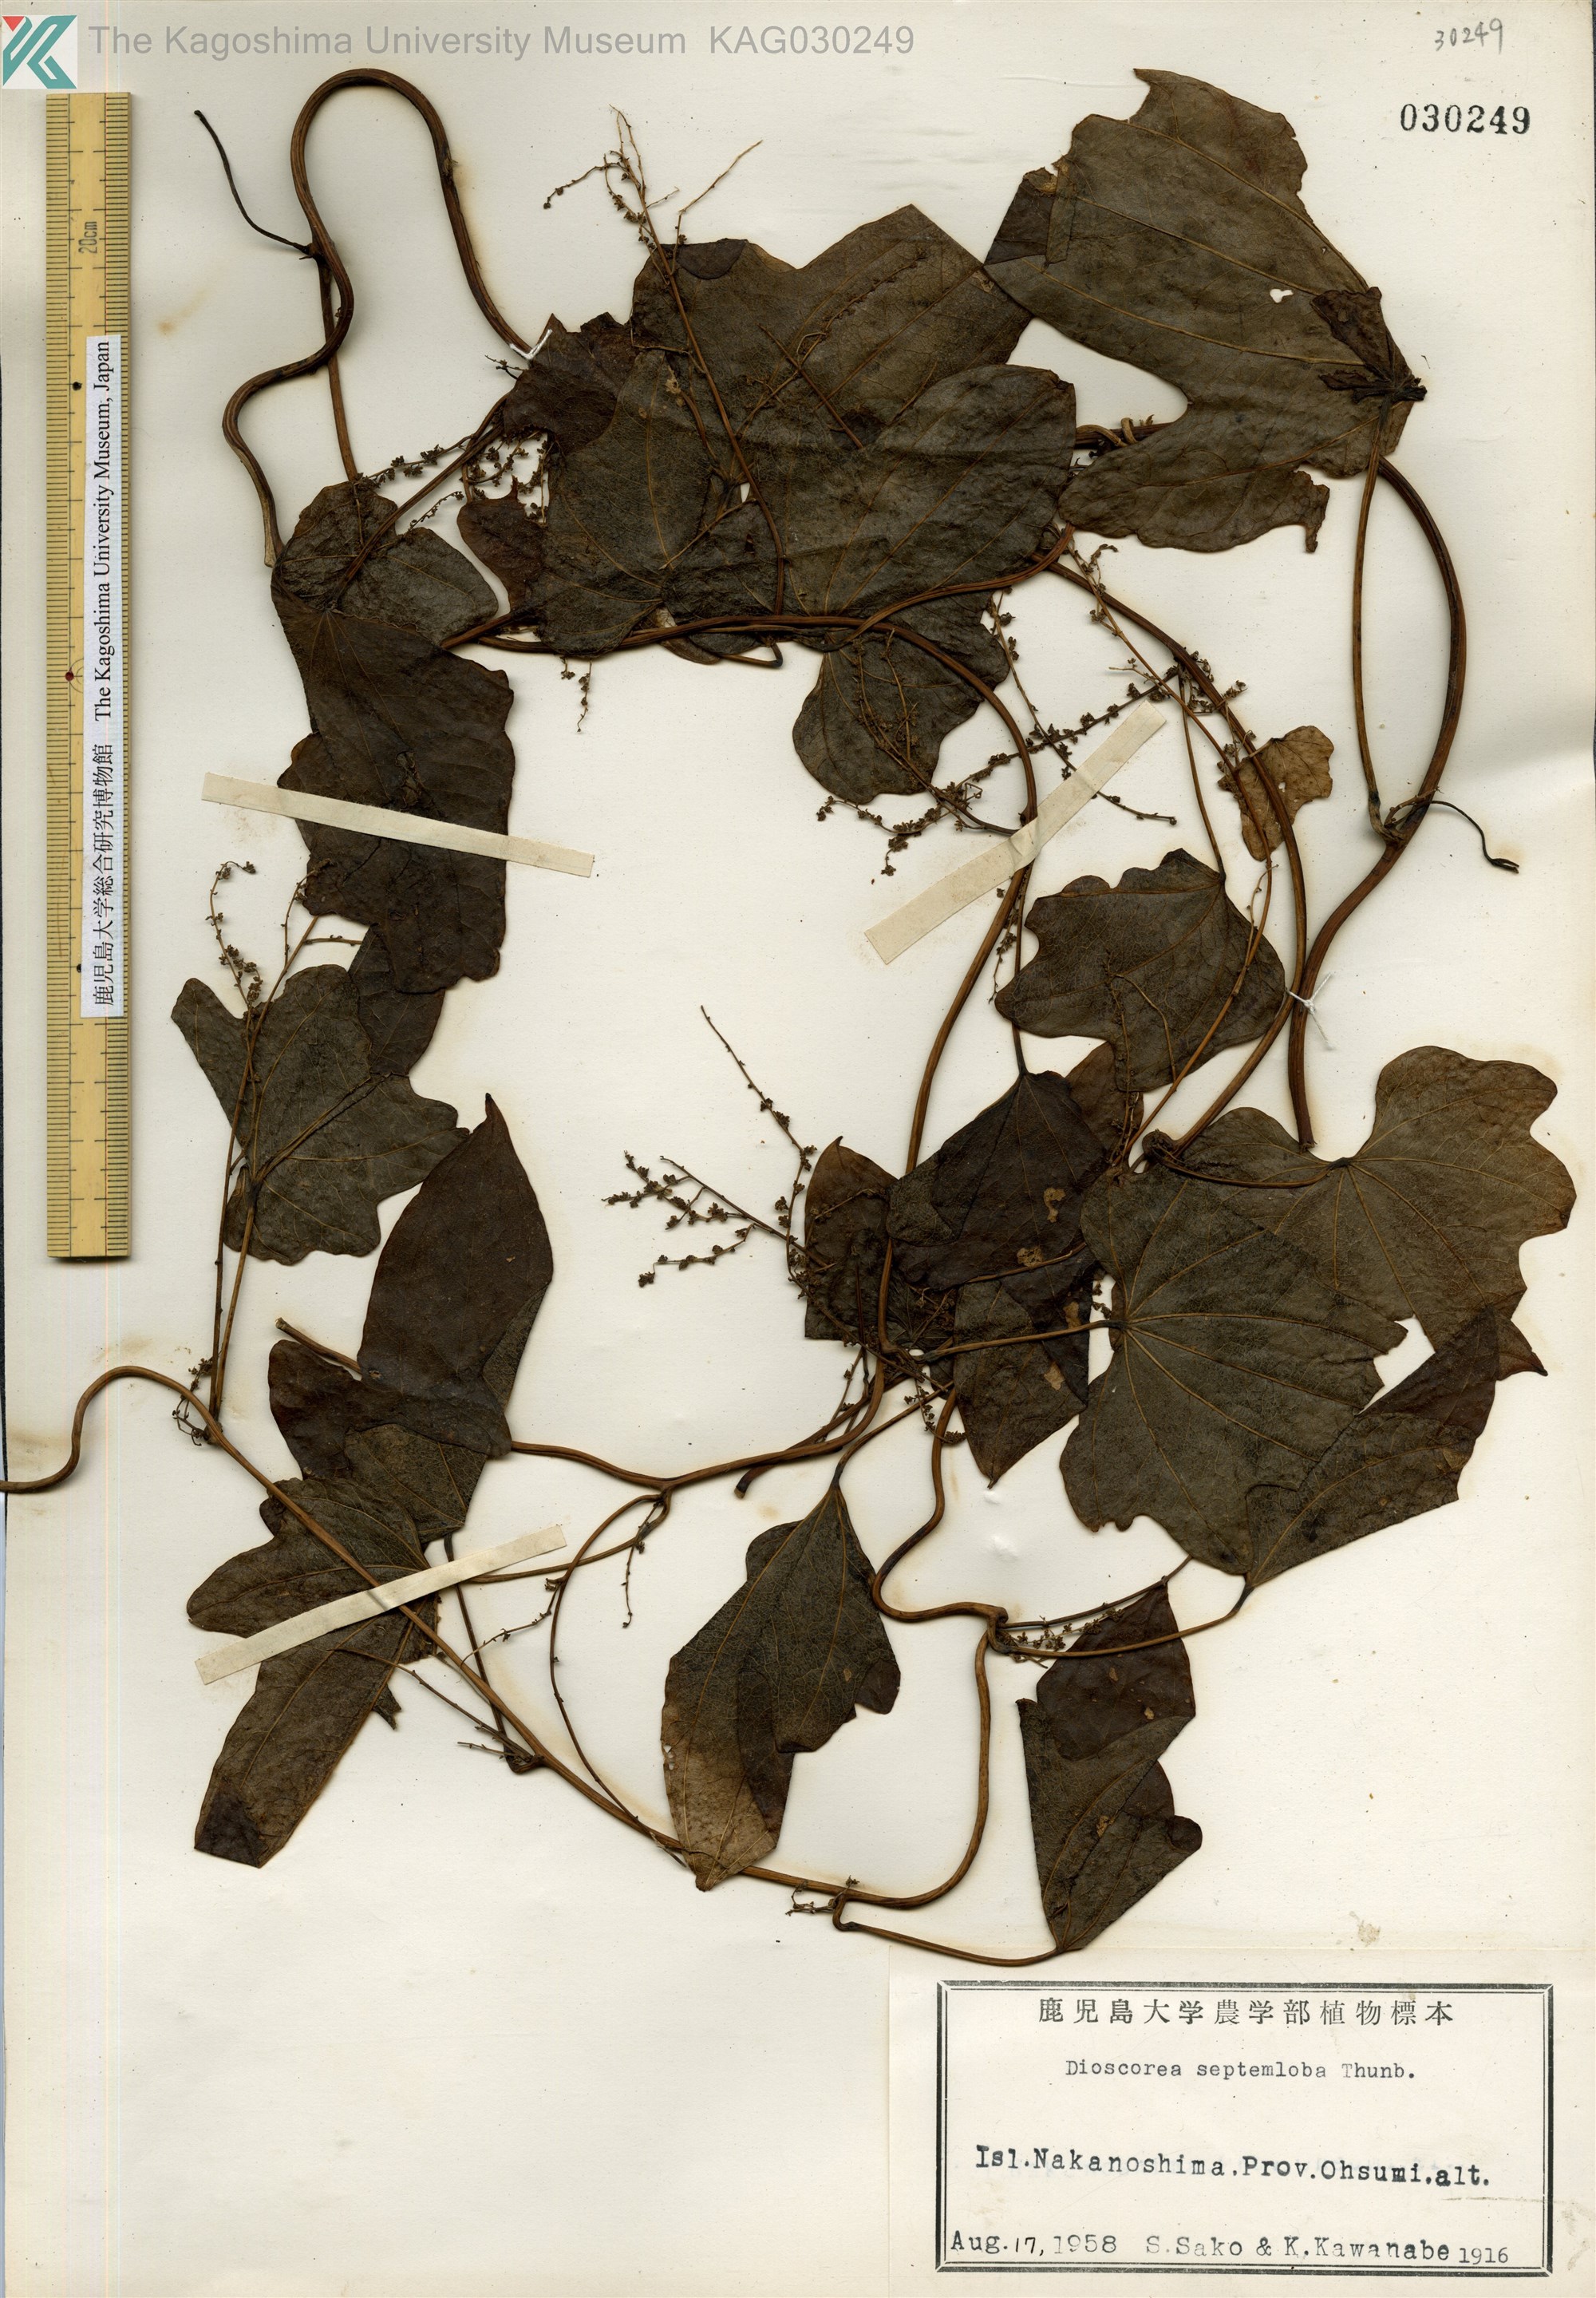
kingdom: Plantae
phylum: Tracheophyta
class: Liliopsida
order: Dioscoreales
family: Dioscoreaceae
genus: Dioscorea
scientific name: Dioscorea septemloba
